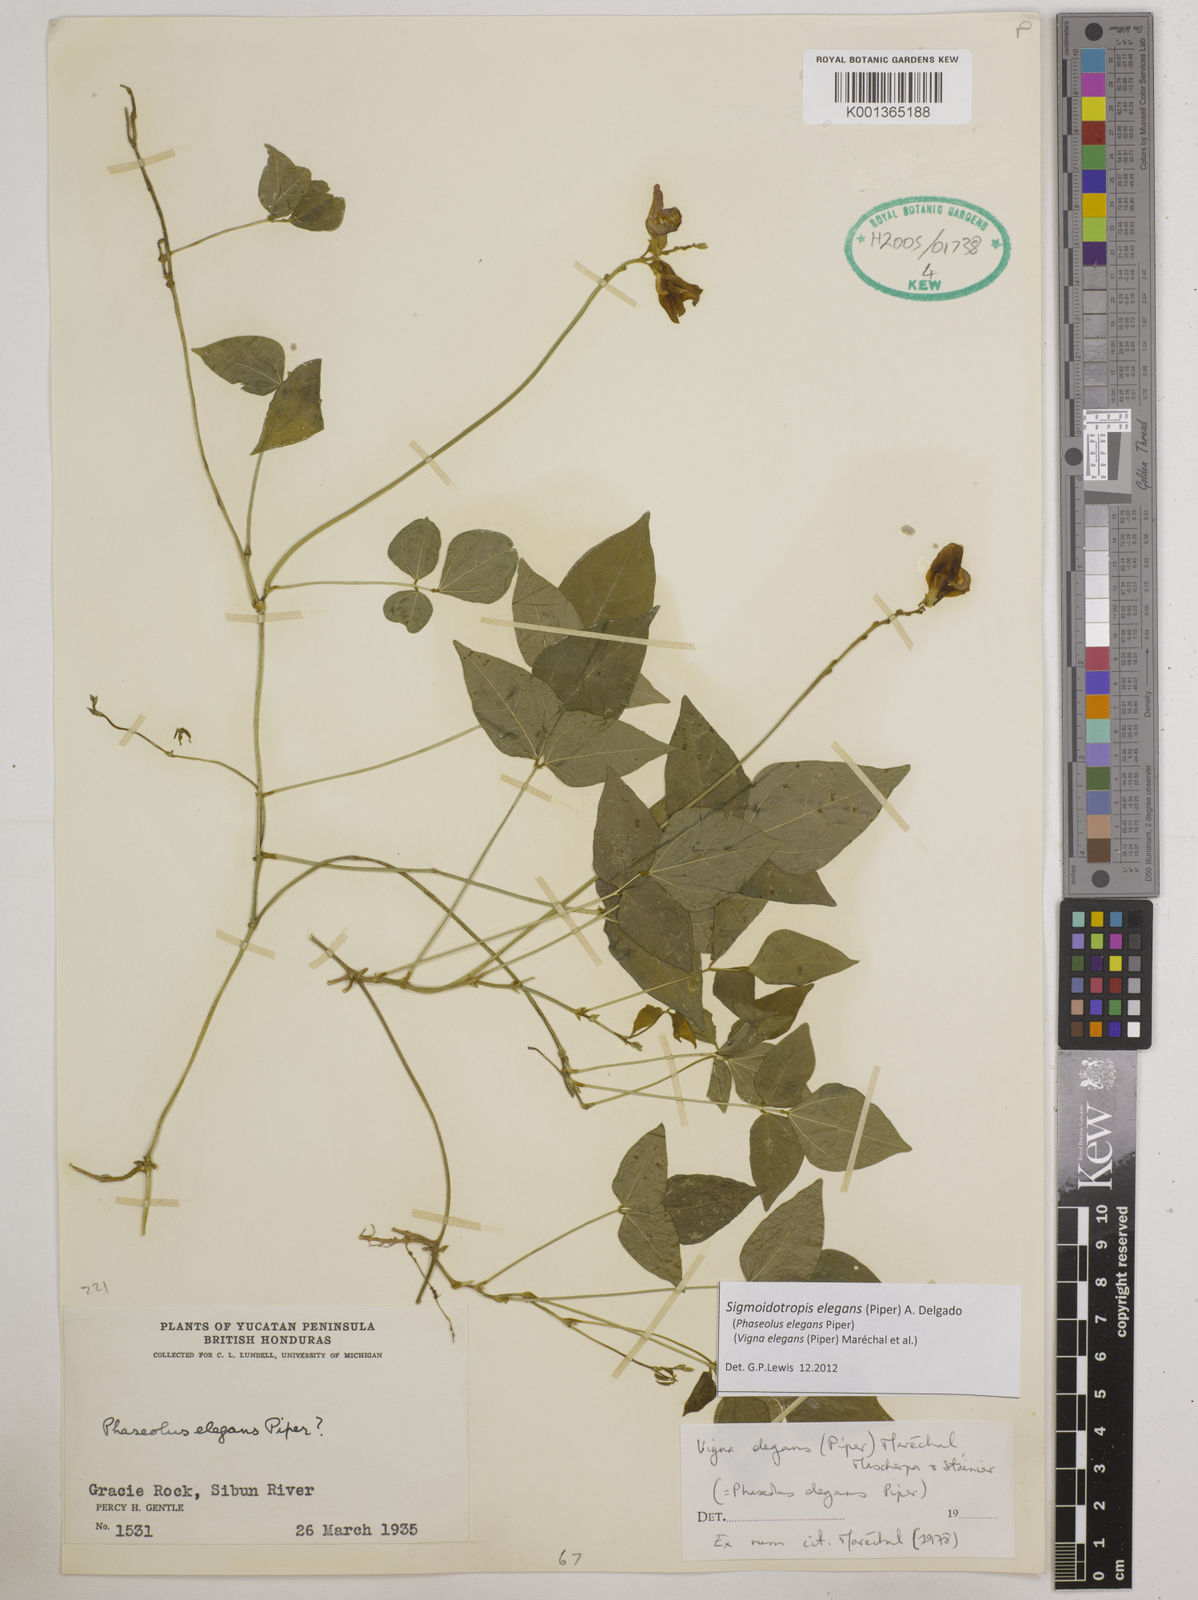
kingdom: Plantae
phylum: Tracheophyta
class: Magnoliopsida
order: Fabales
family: Fabaceae
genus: Sigmoidotropis
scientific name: Sigmoidotropis elegans
